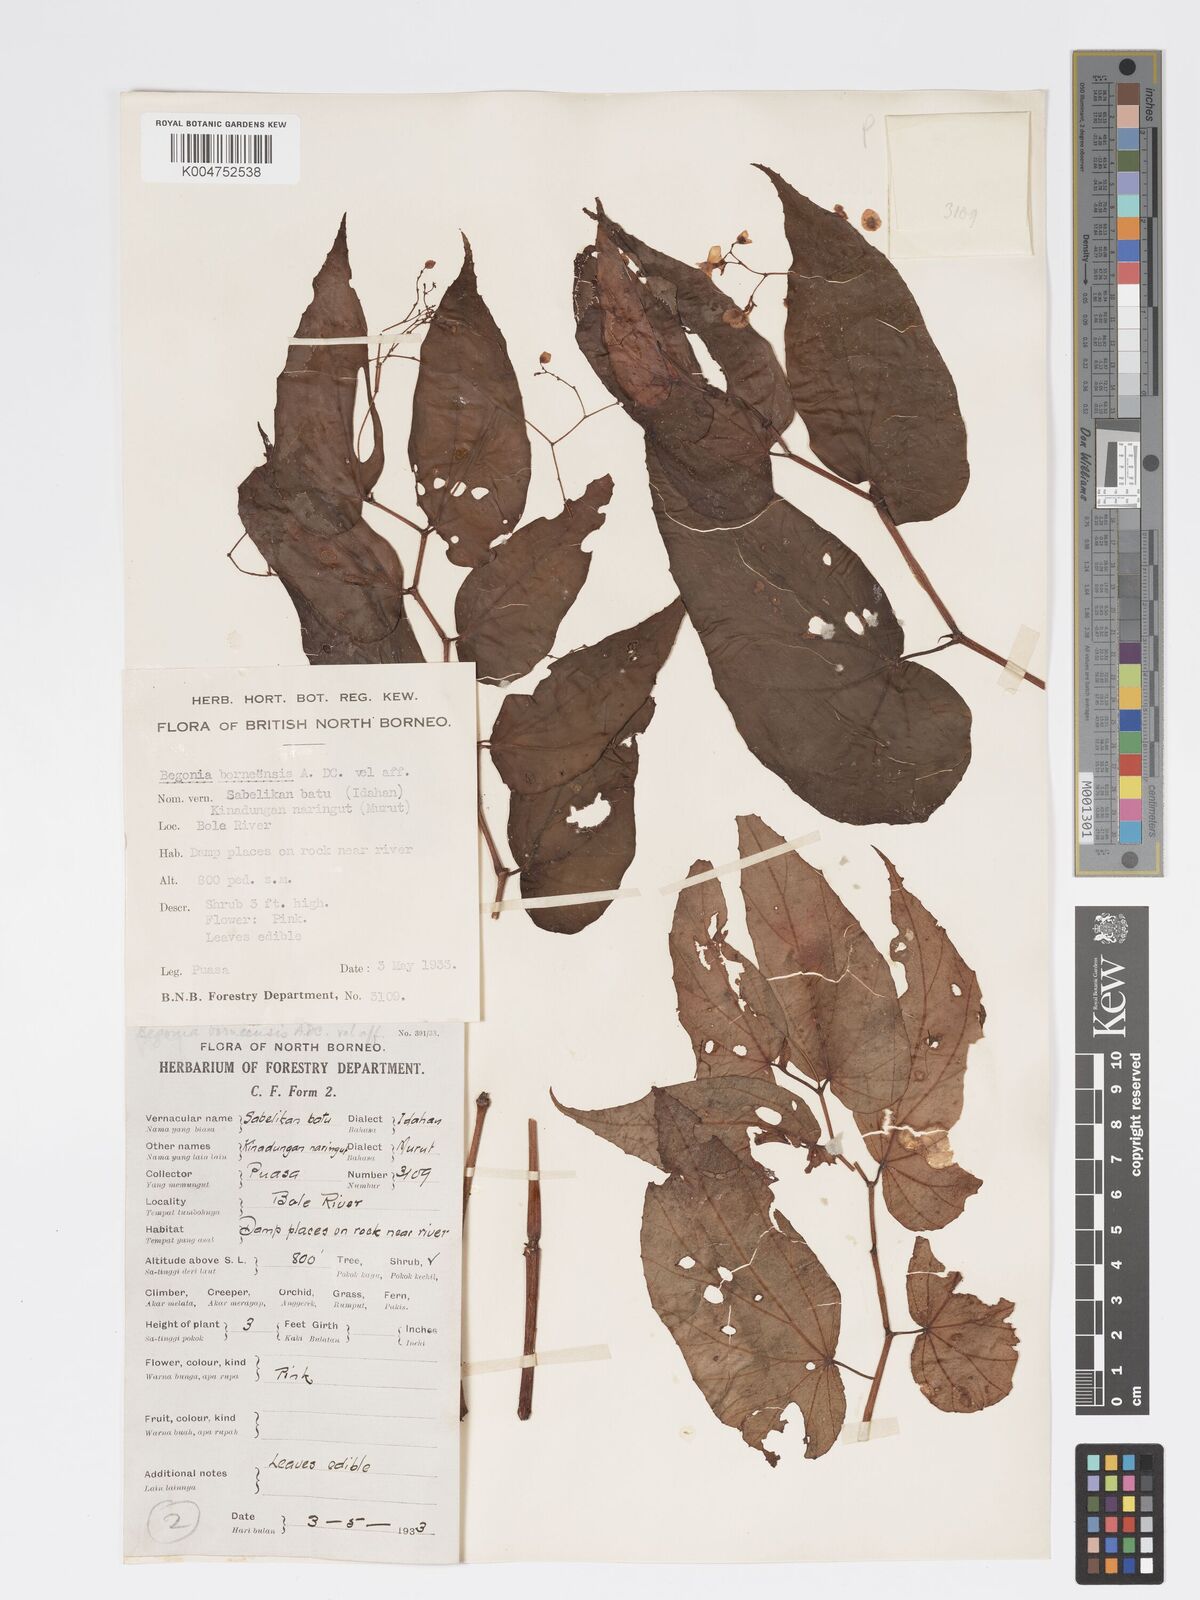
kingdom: Plantae
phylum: Tracheophyta
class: Magnoliopsida
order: Cucurbitales
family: Begoniaceae
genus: Begonia
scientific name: Begonia pryeriana
